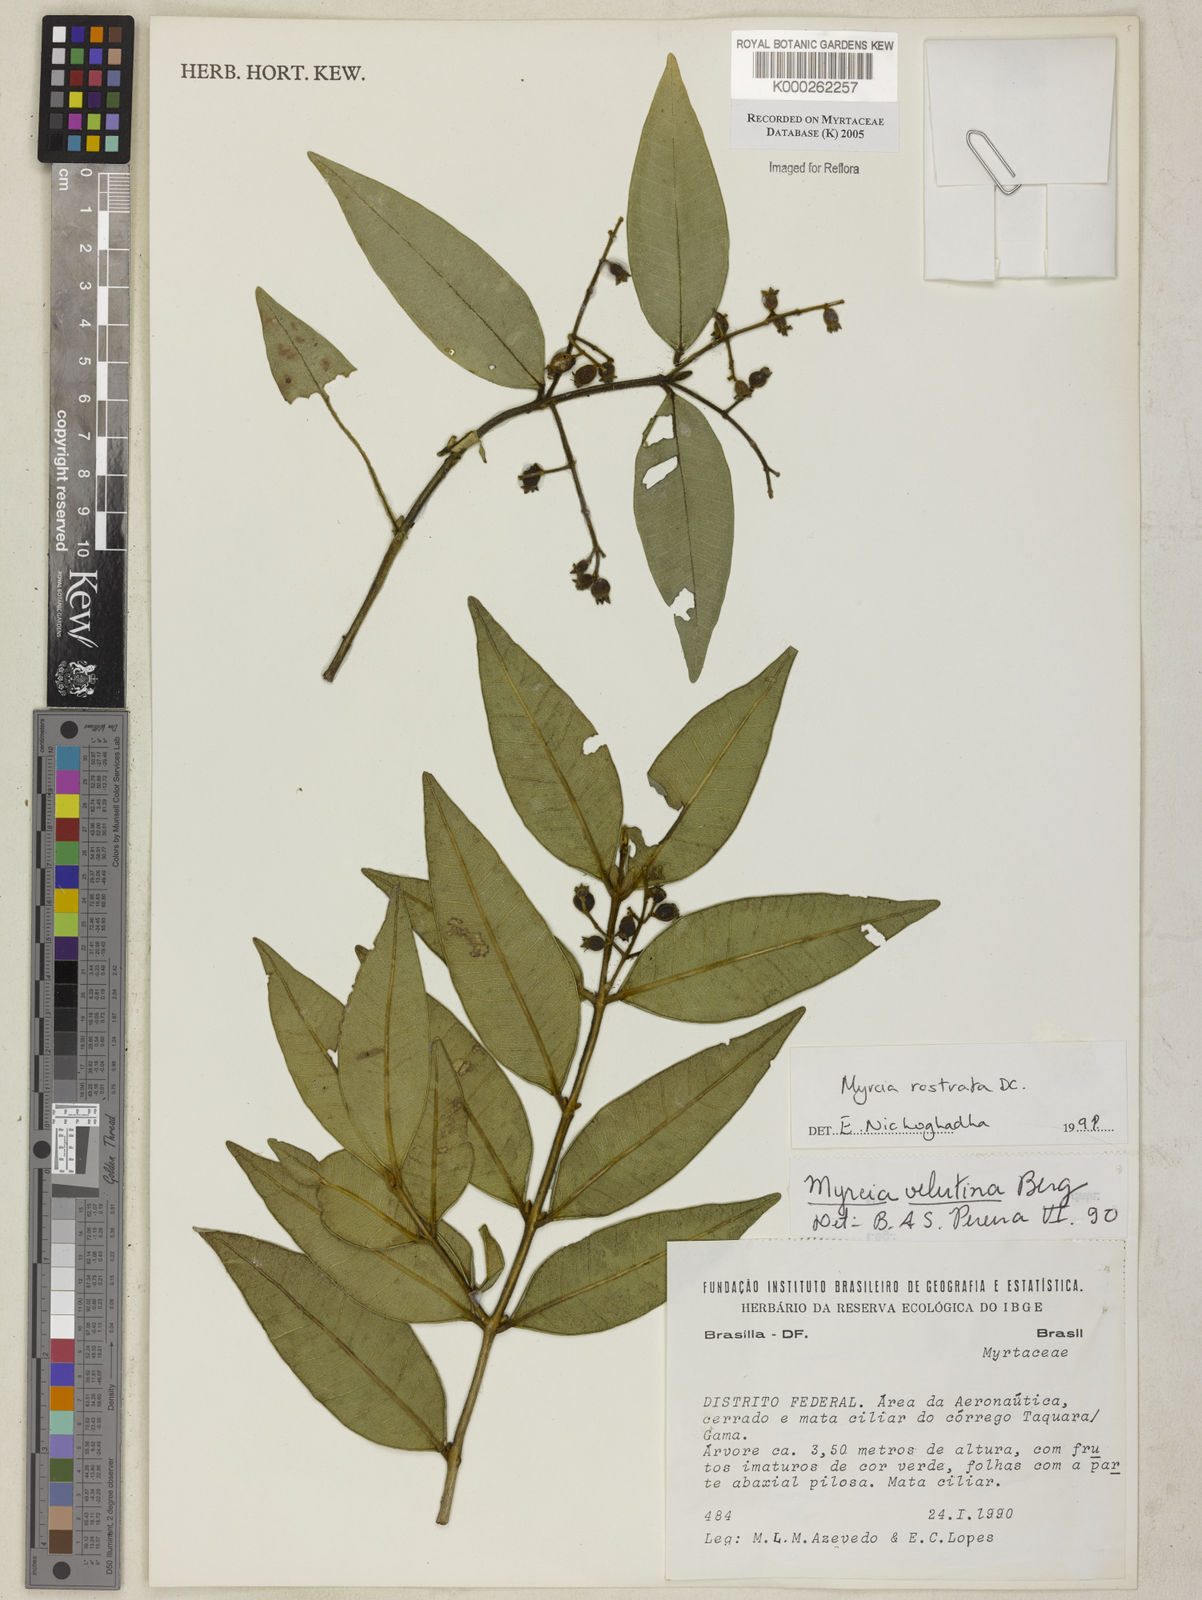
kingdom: Plantae
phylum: Tracheophyta
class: Magnoliopsida
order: Myrtales
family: Myrtaceae
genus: Myrcia
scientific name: Myrcia splendens
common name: Surinam cherry
